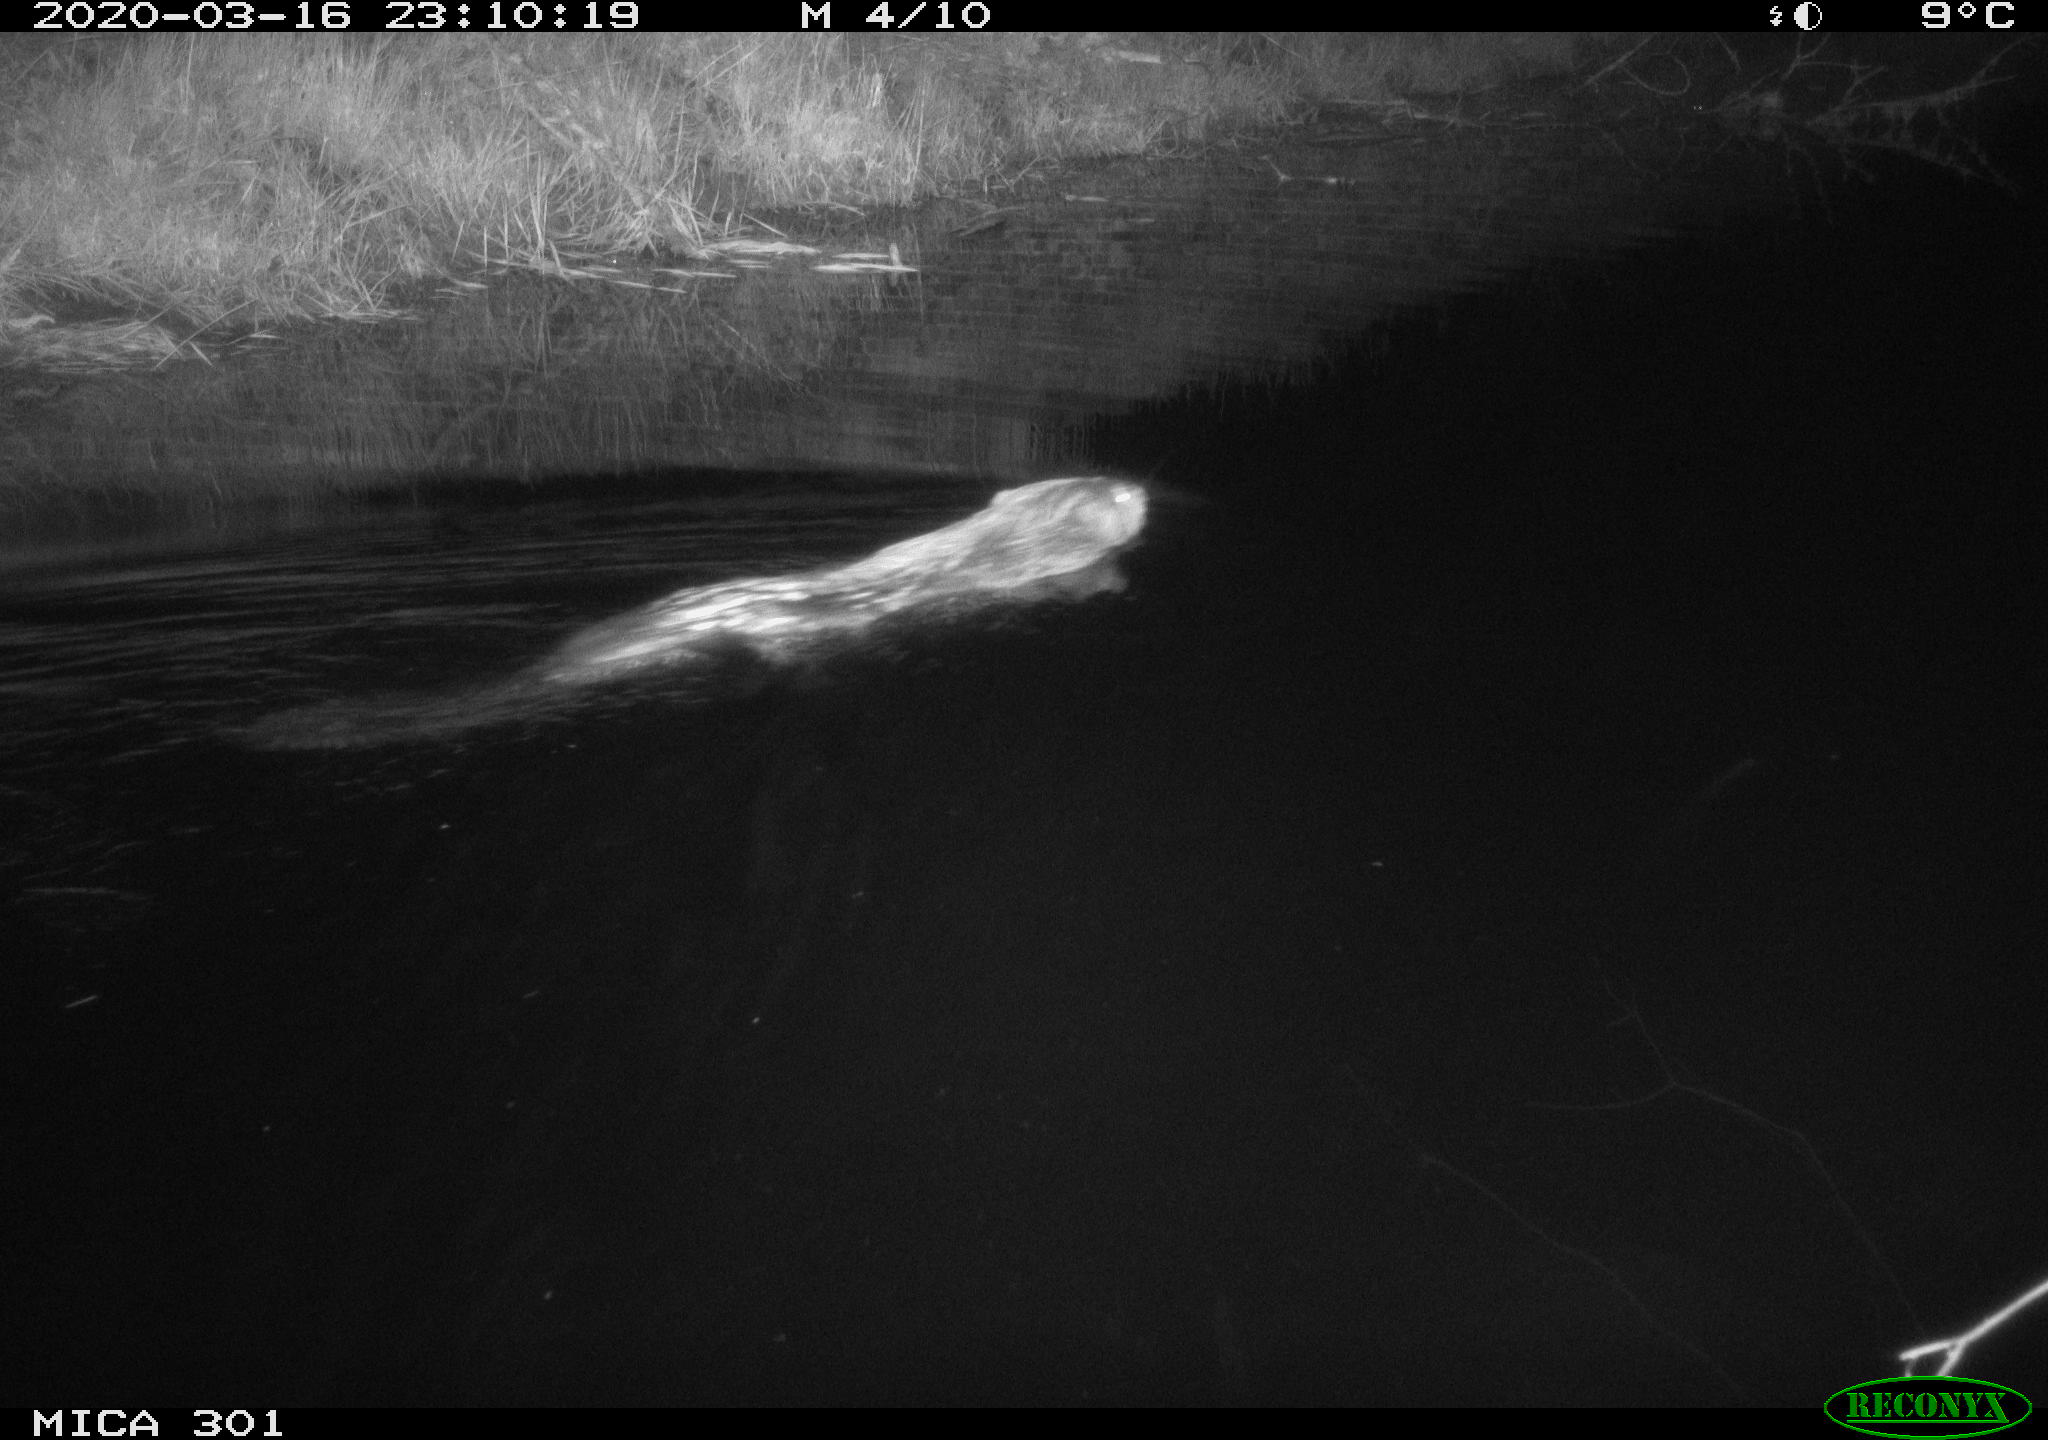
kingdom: Animalia
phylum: Chordata
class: Mammalia
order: Rodentia
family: Castoridae
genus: Castor
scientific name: Castor fiber
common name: Eurasian beaver
